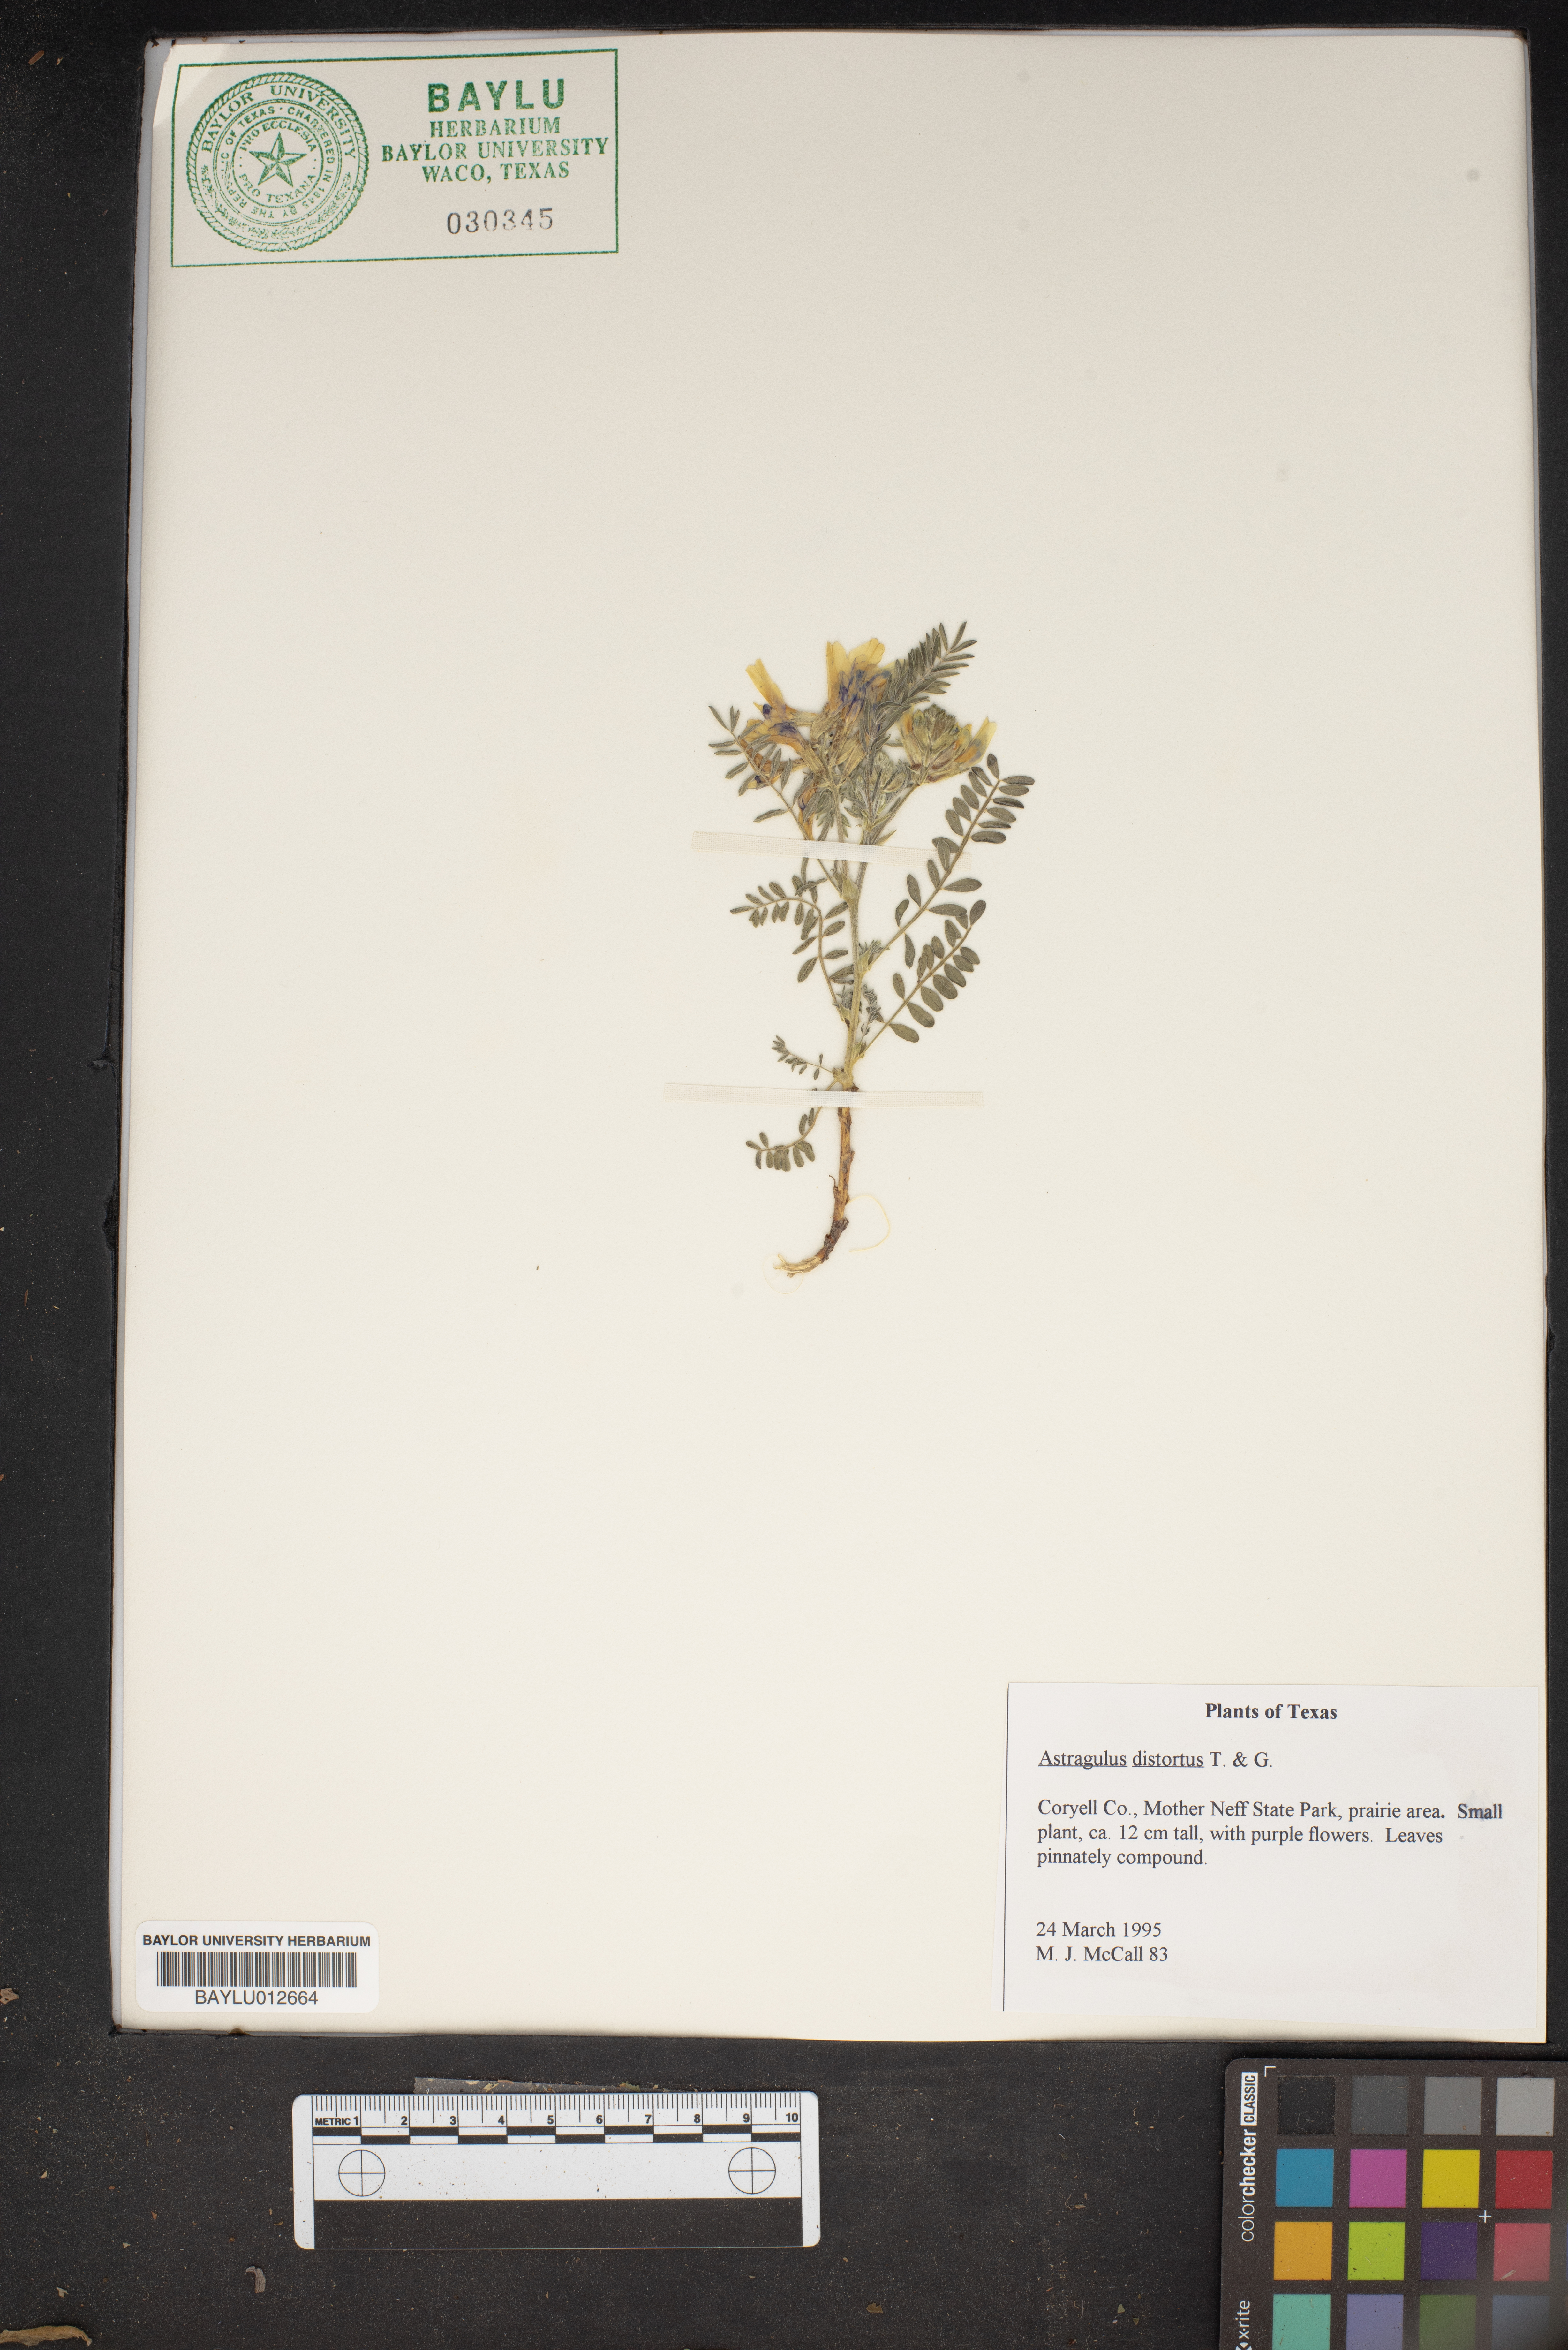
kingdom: Plantae
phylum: Tracheophyta
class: Magnoliopsida
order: Fabales
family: Fabaceae
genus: Astragalus
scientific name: Astragalus distortus
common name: Ozark milk-vetch
